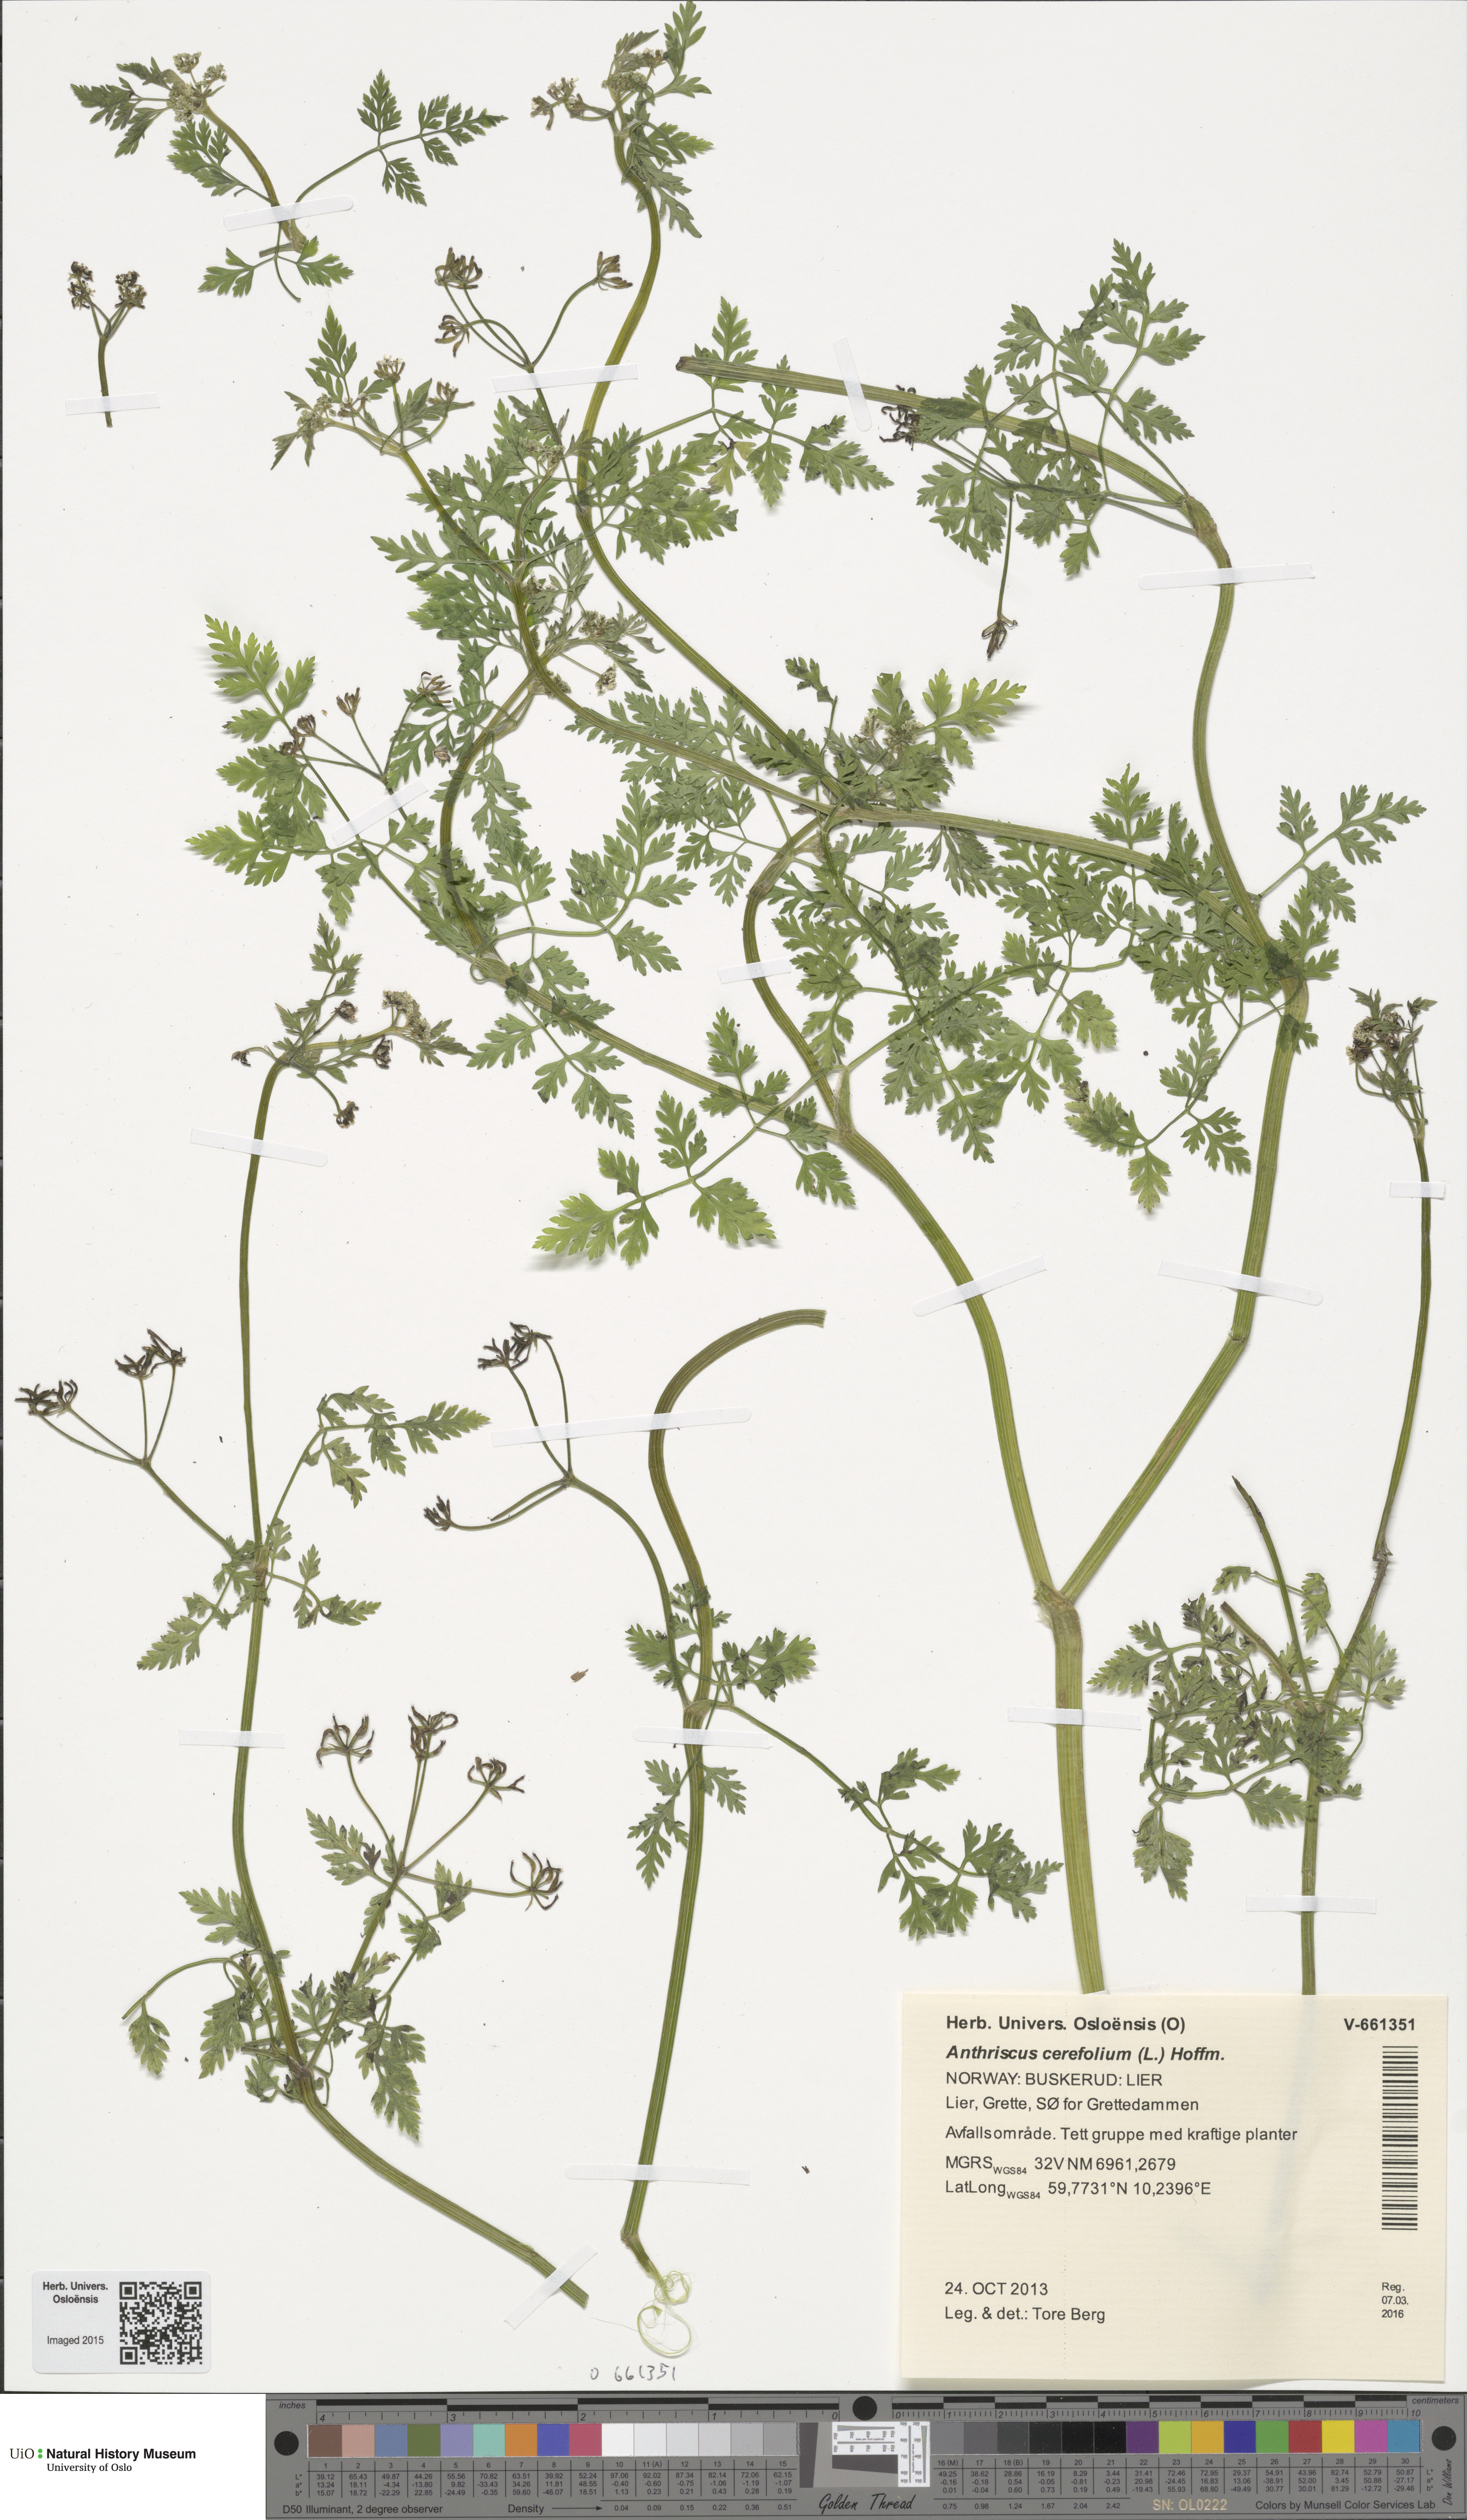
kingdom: Plantae
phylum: Tracheophyta
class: Magnoliopsida
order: Apiales
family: Apiaceae
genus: Anthriscus
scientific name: Anthriscus cerefolium
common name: Garden chervil
